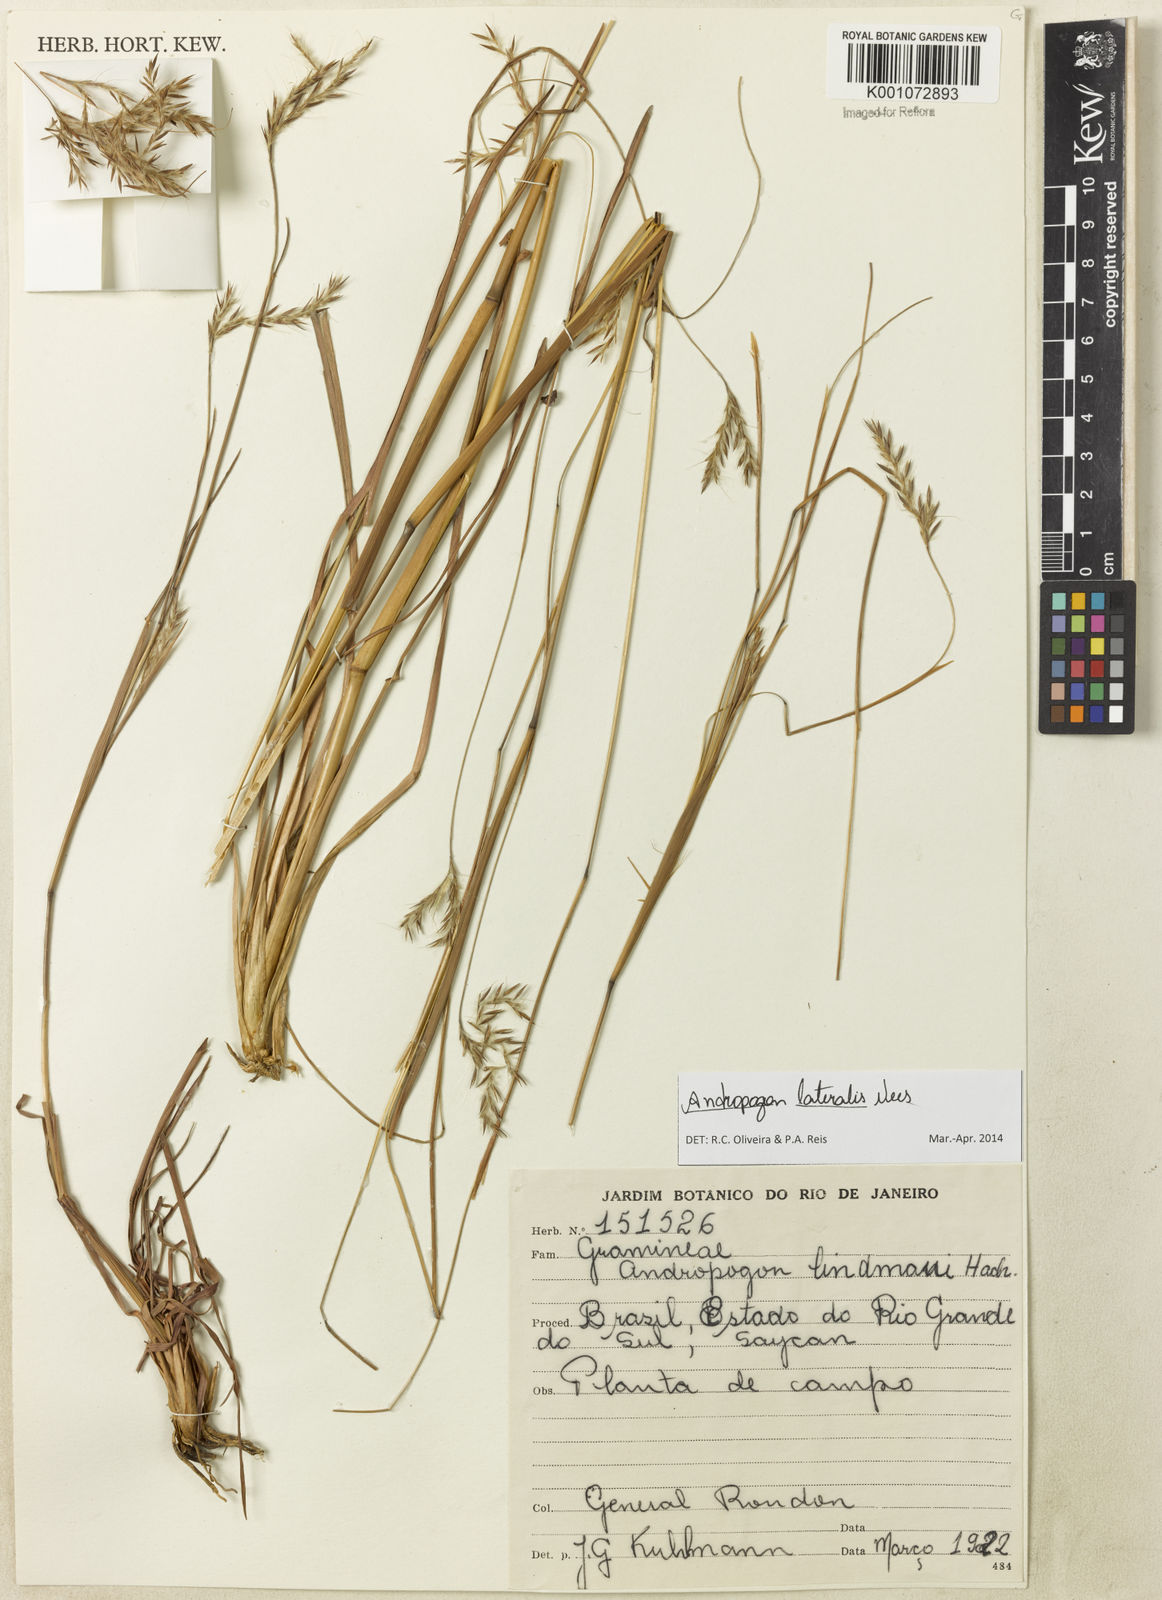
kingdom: Plantae
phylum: Tracheophyta
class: Liliopsida
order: Poales
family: Poaceae
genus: Andropogon
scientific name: Andropogon lateralis
